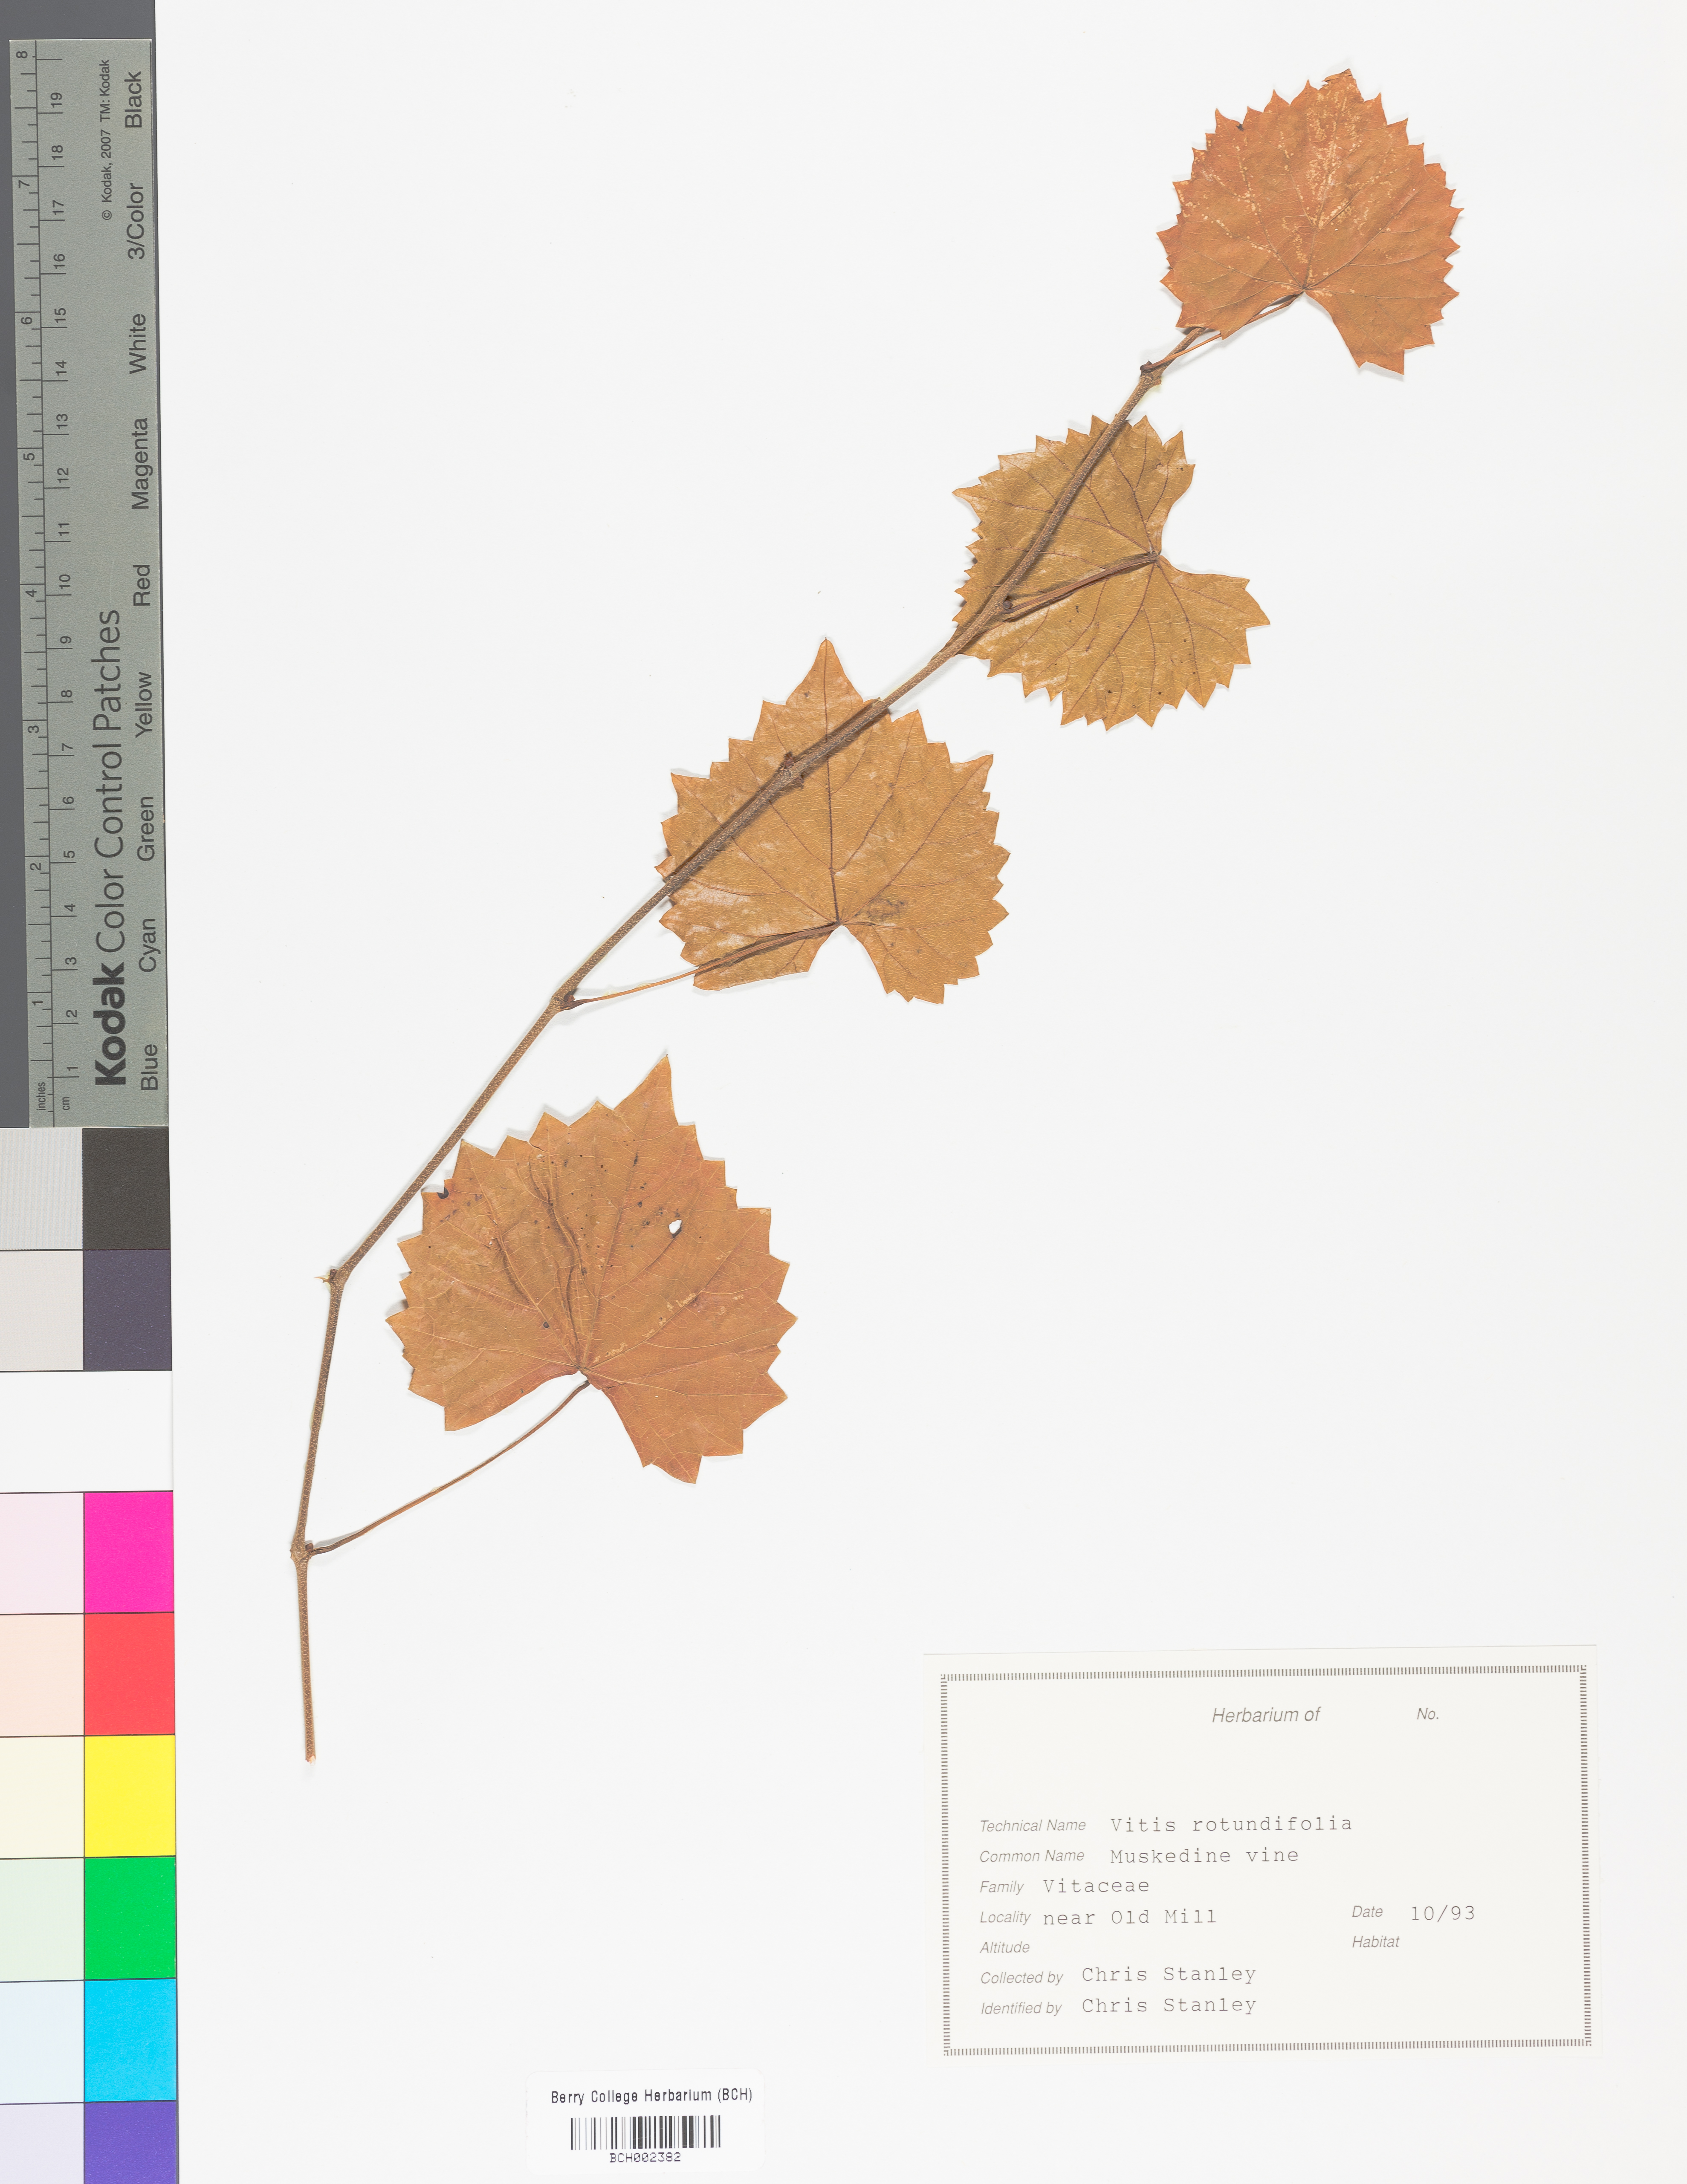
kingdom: Plantae
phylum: Tracheophyta
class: Magnoliopsida
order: Vitales
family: Vitaceae
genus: Vitis
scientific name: Vitis rotundifolia
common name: Muscadine grape
